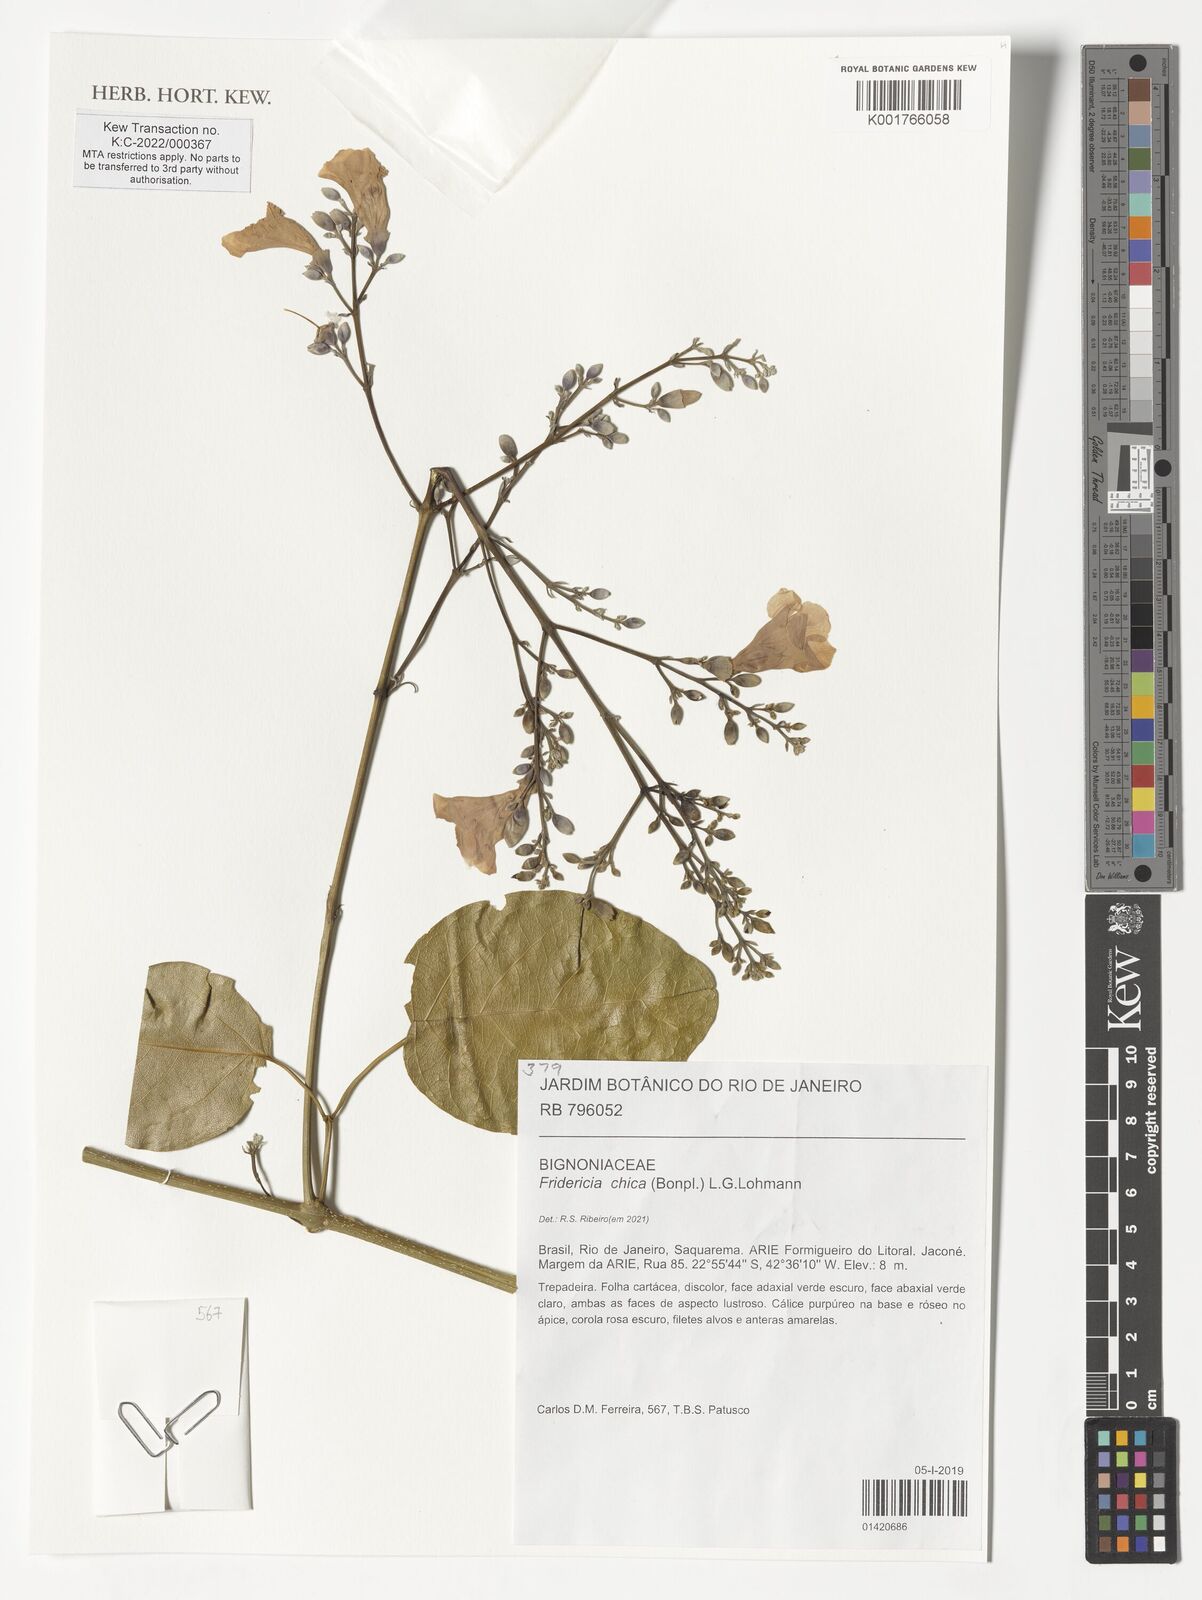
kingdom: Plantae
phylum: Tracheophyta
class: Magnoliopsida
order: Lamiales
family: Bignoniaceae
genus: Fridericia
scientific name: Fridericia chica
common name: Cricketvine
